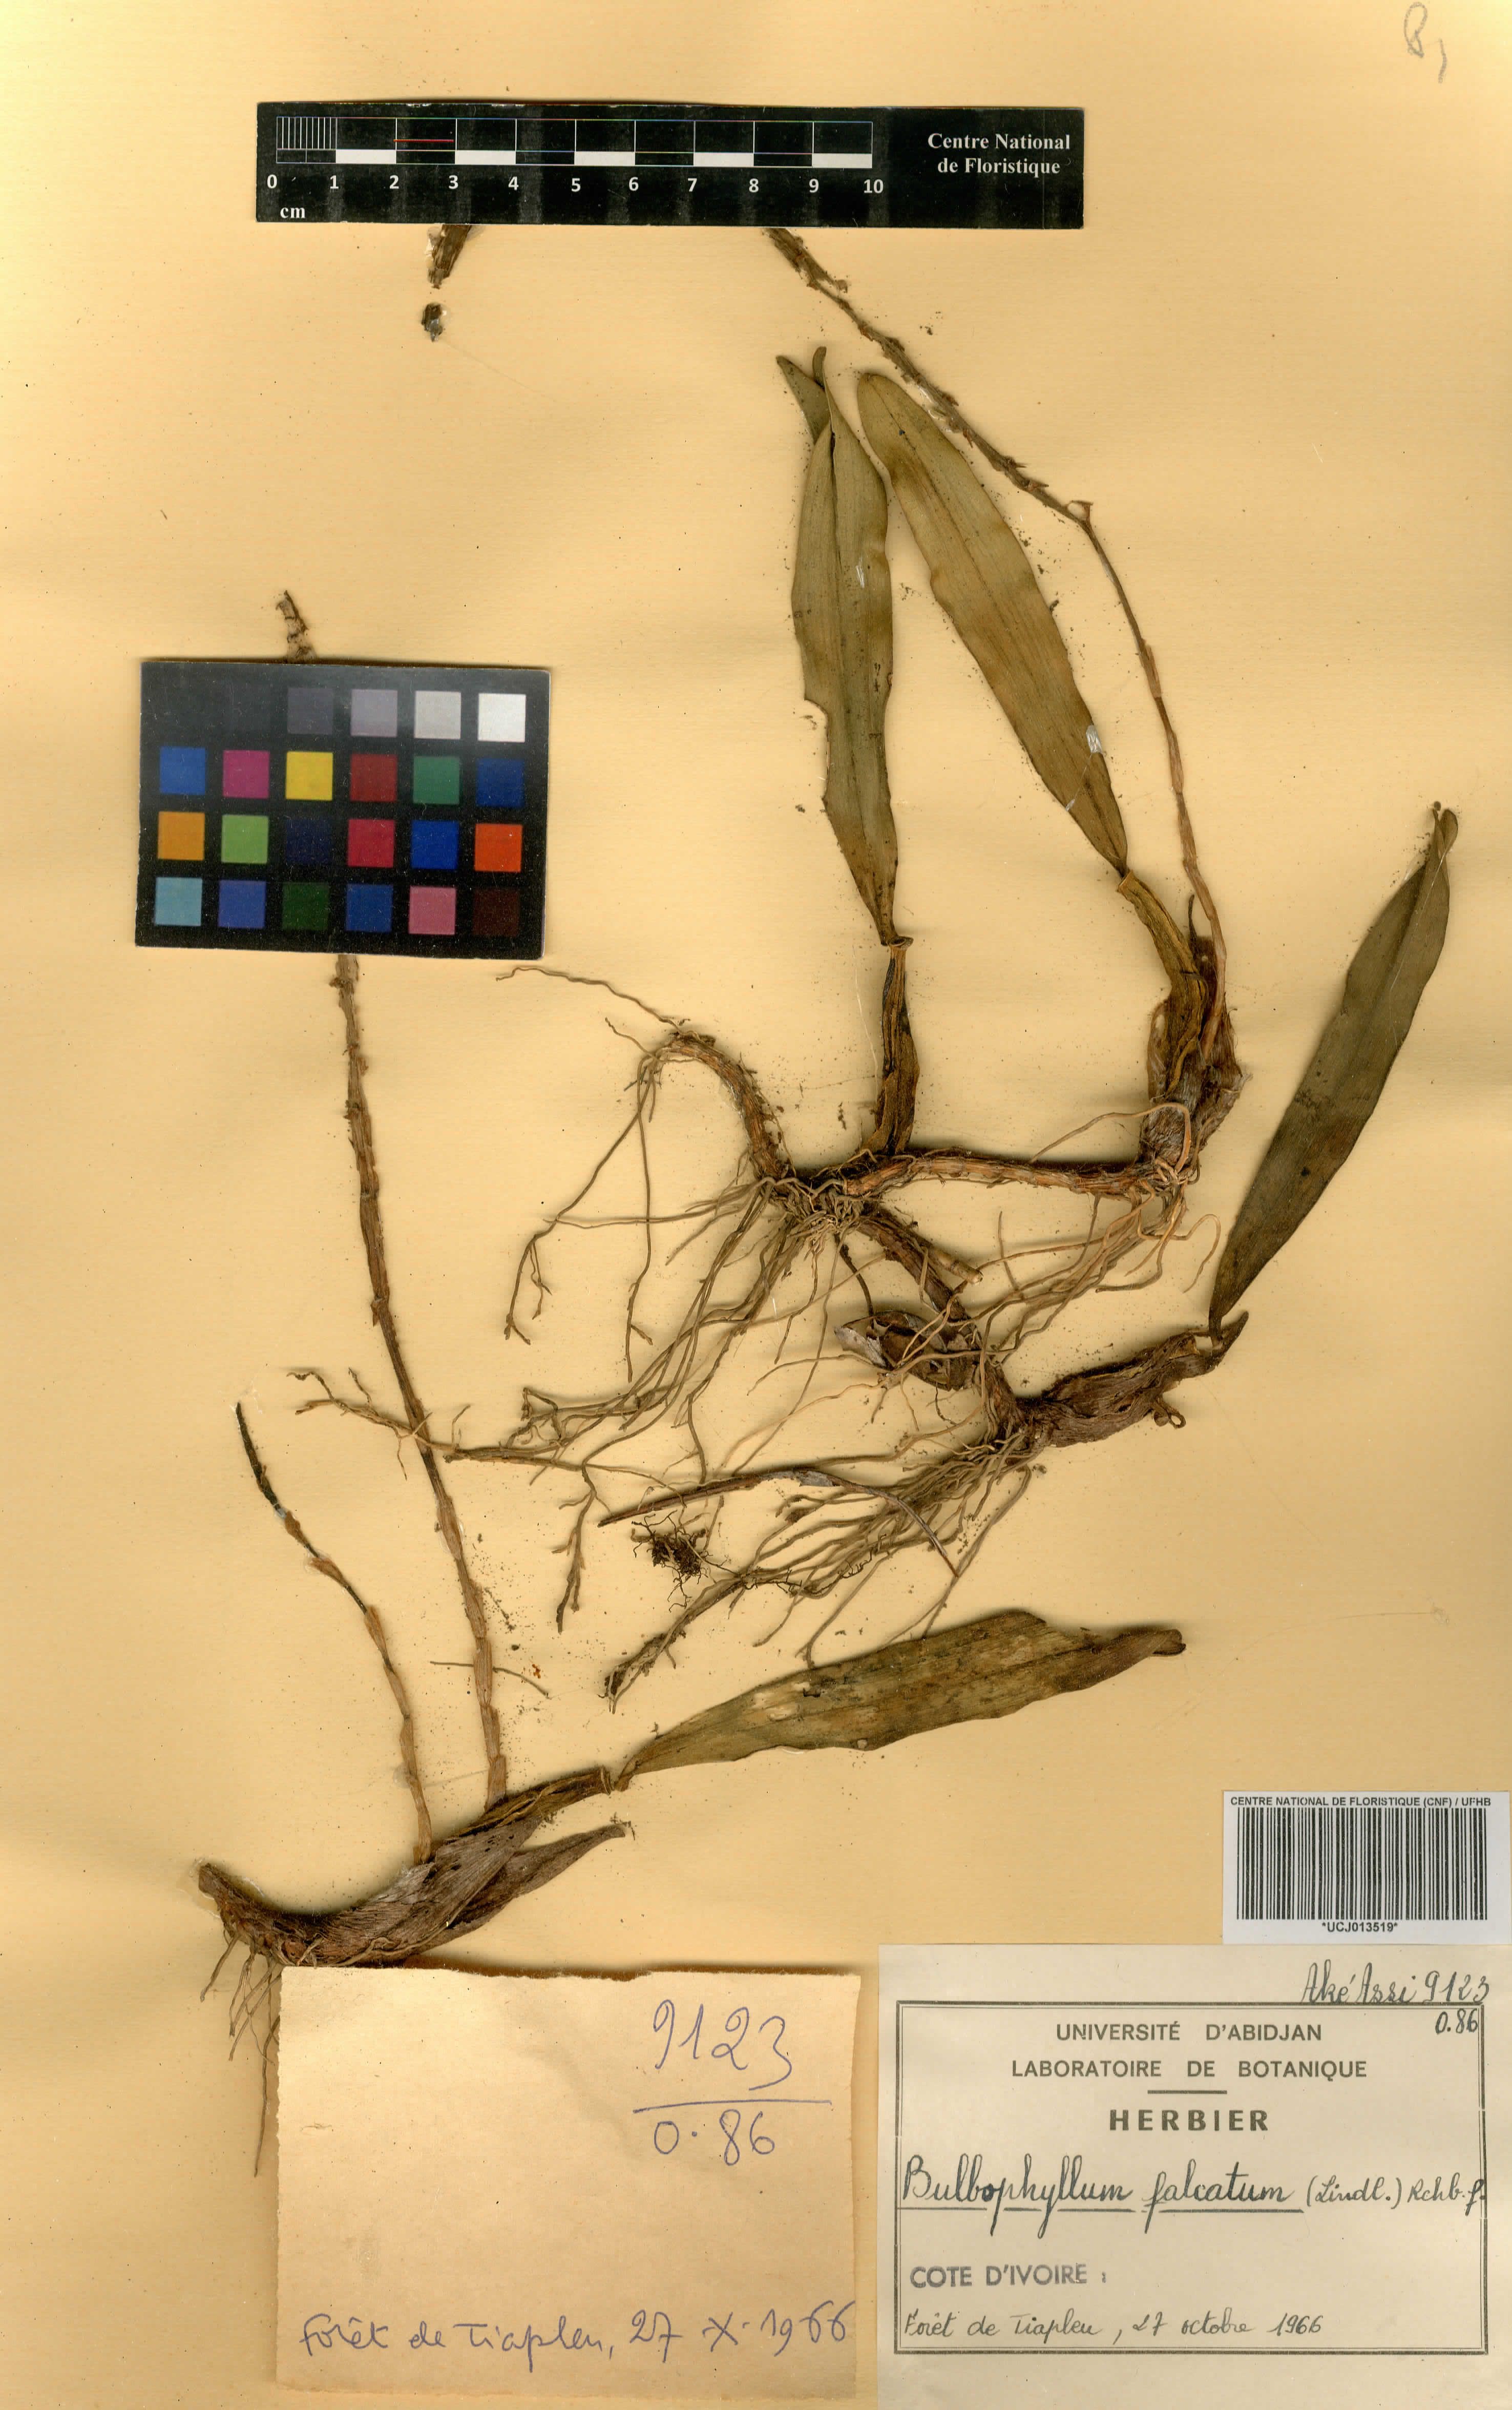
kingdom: Plantae
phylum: Tracheophyta
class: Liliopsida
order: Asparagales
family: Orchidaceae
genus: Bulbophyllum
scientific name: Bulbophyllum falcatum
